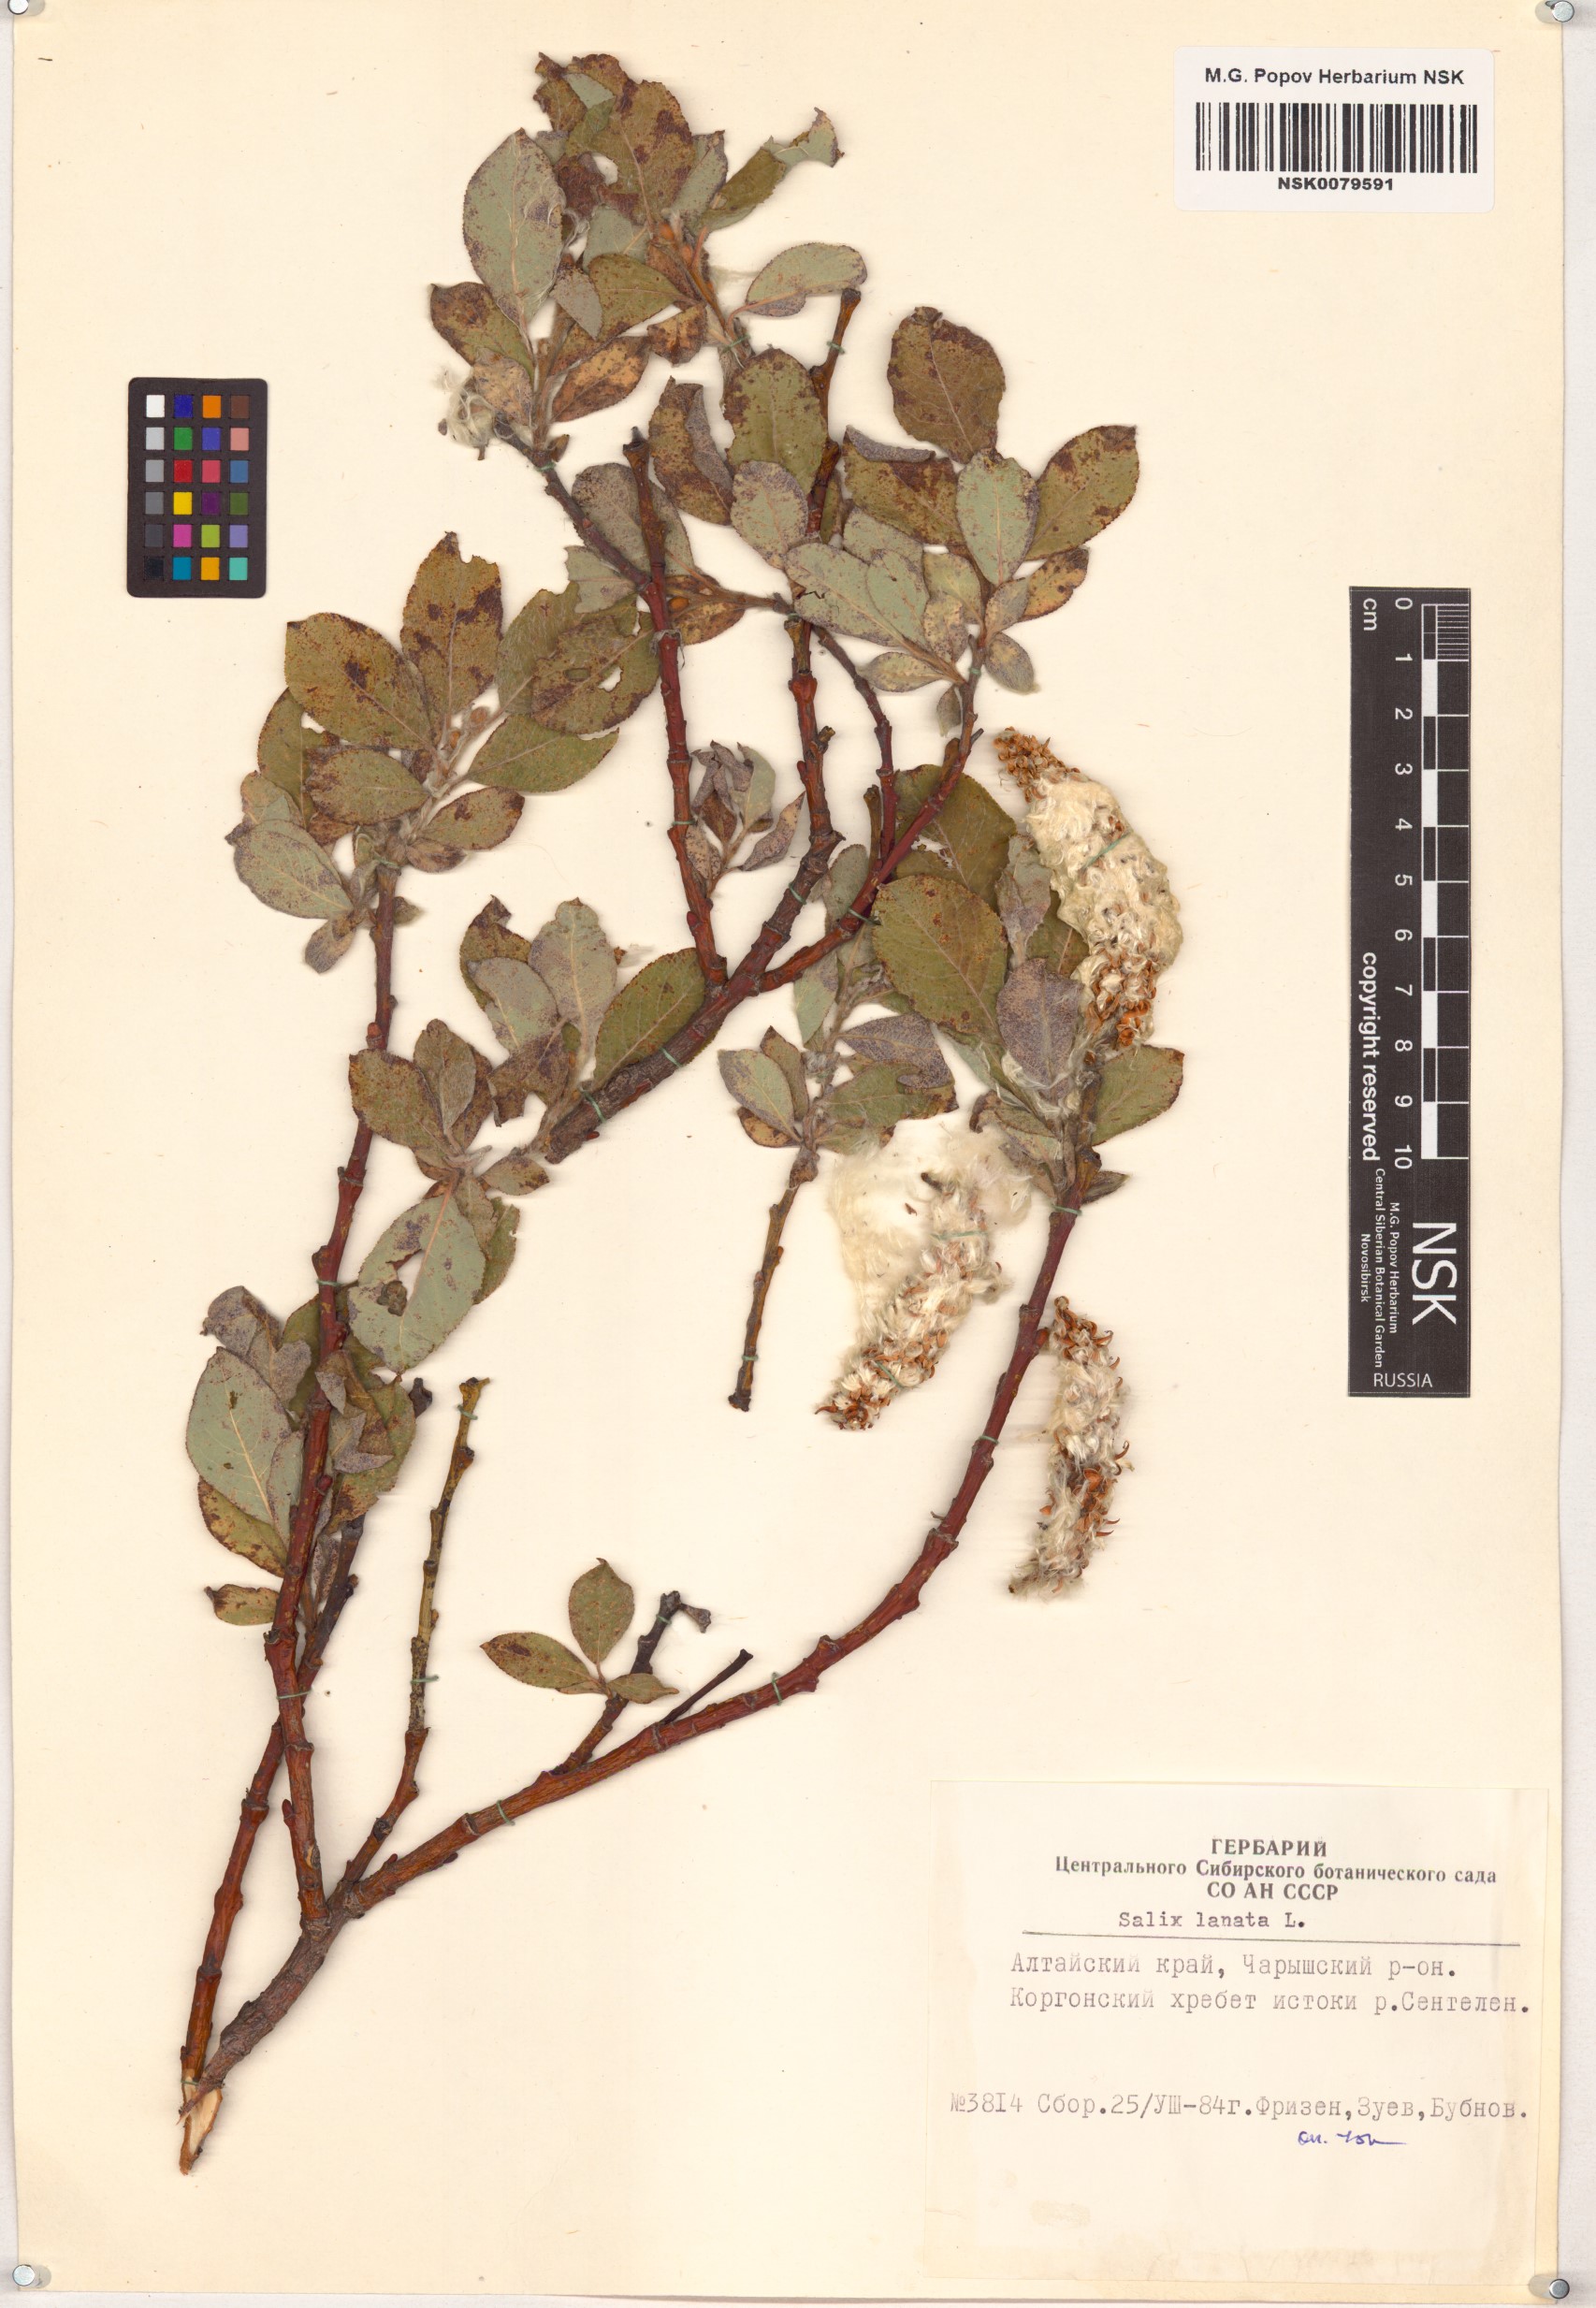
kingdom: Plantae
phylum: Tracheophyta
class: Magnoliopsida
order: Malpighiales
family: Salicaceae
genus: Salix
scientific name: Salix lanata
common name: Woolly willow
